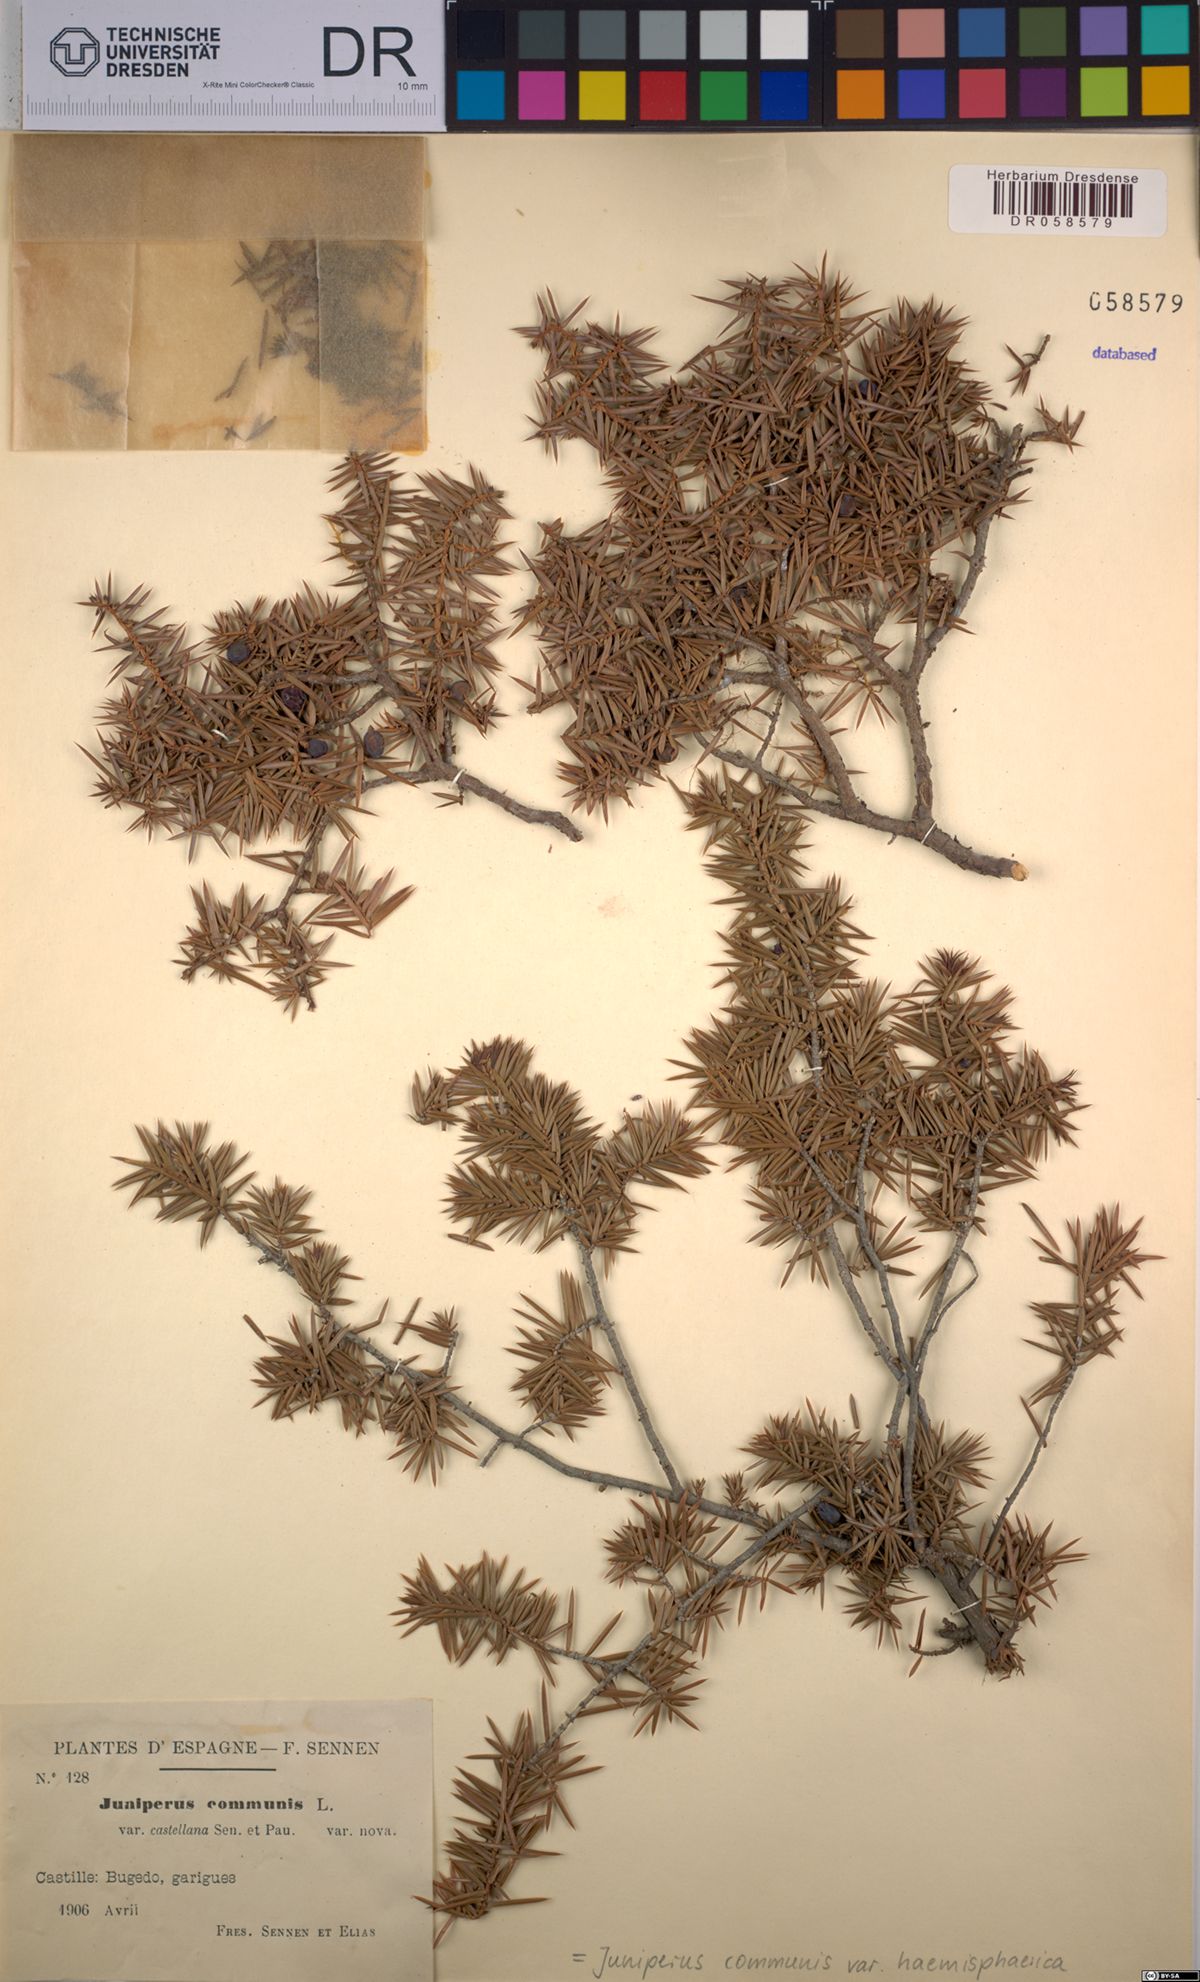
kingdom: Plantae
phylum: Tracheophyta
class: Pinopsida
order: Pinales
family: Cupressaceae
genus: Juniperus
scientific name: Juniperus communis
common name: Common juniper
